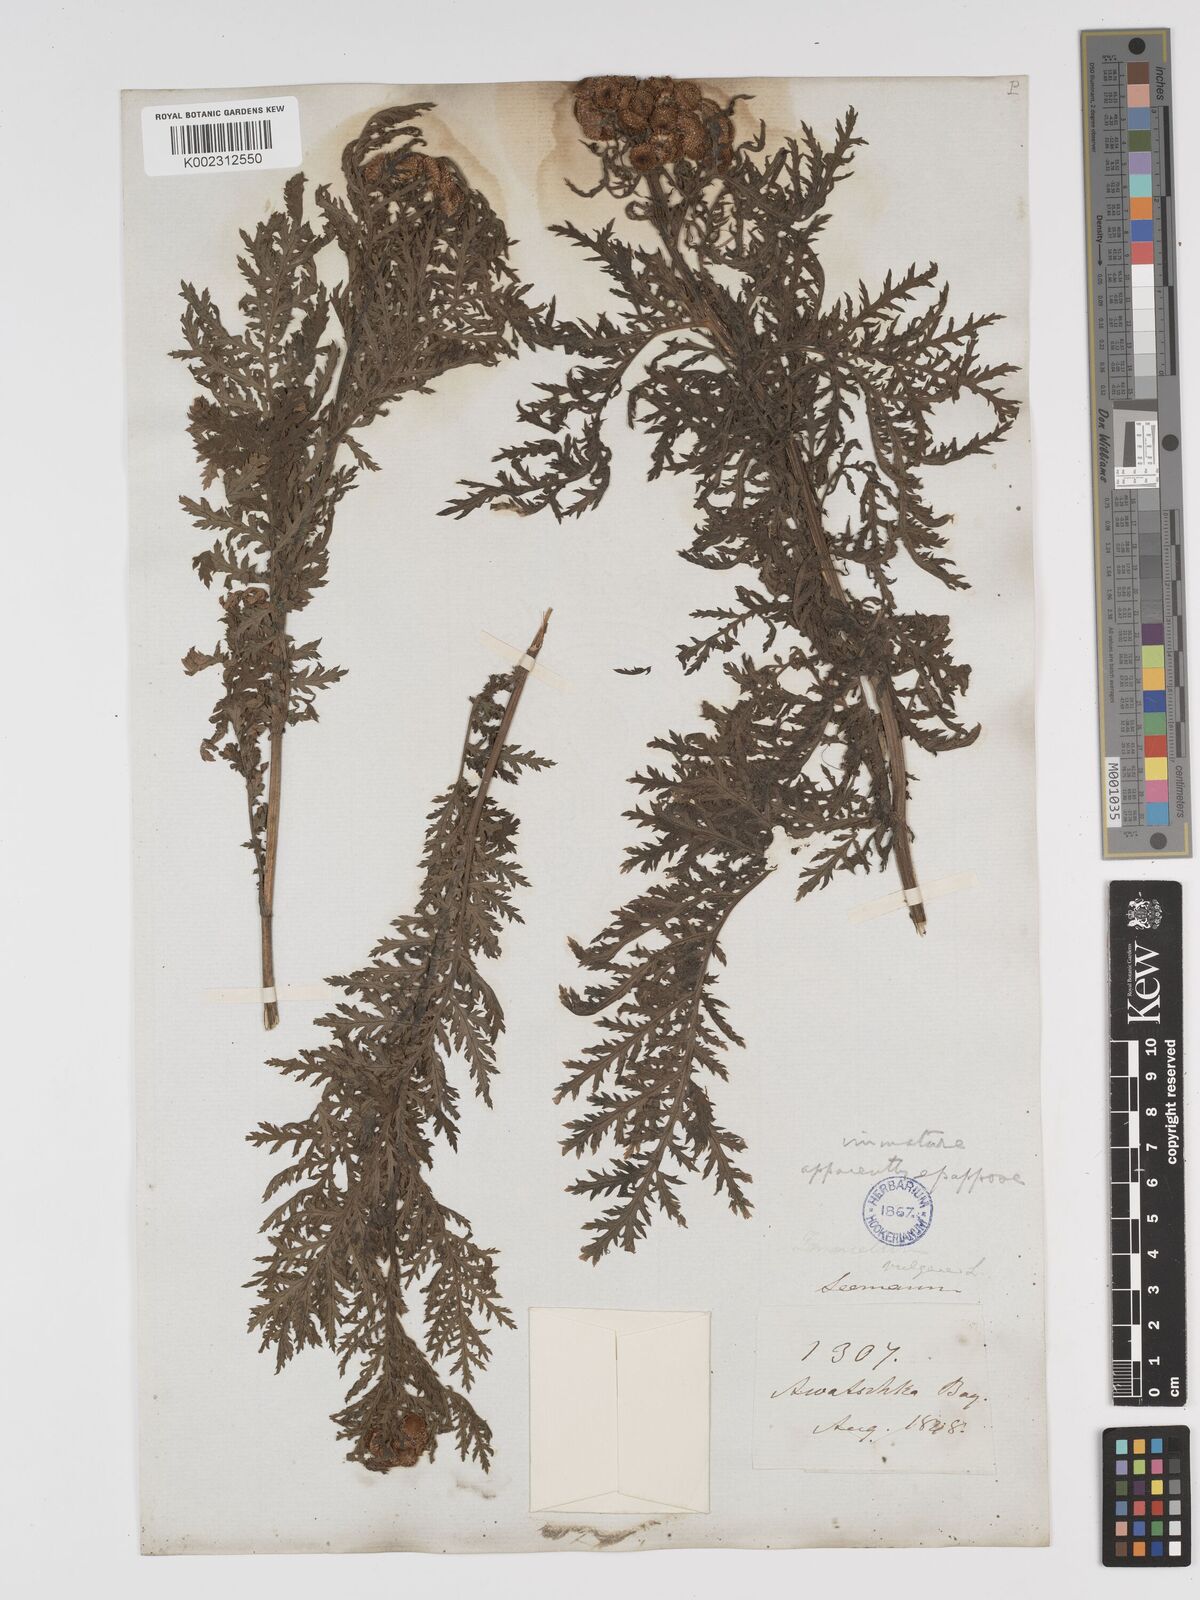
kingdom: Plantae
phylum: Tracheophyta
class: Magnoliopsida
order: Asterales
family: Asteraceae
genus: Tanacetum
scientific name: Tanacetum vulgare
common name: Common tansy
